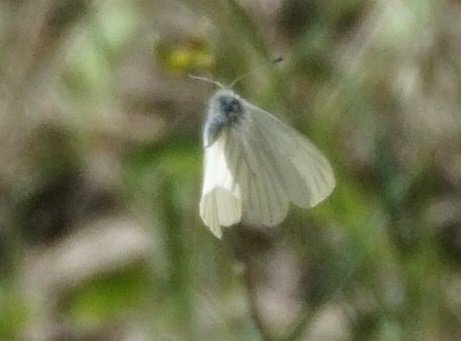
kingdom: Animalia
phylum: Arthropoda
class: Insecta
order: Lepidoptera
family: Pieridae
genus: Pieris
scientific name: Pieris oleracea
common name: Mustard White
